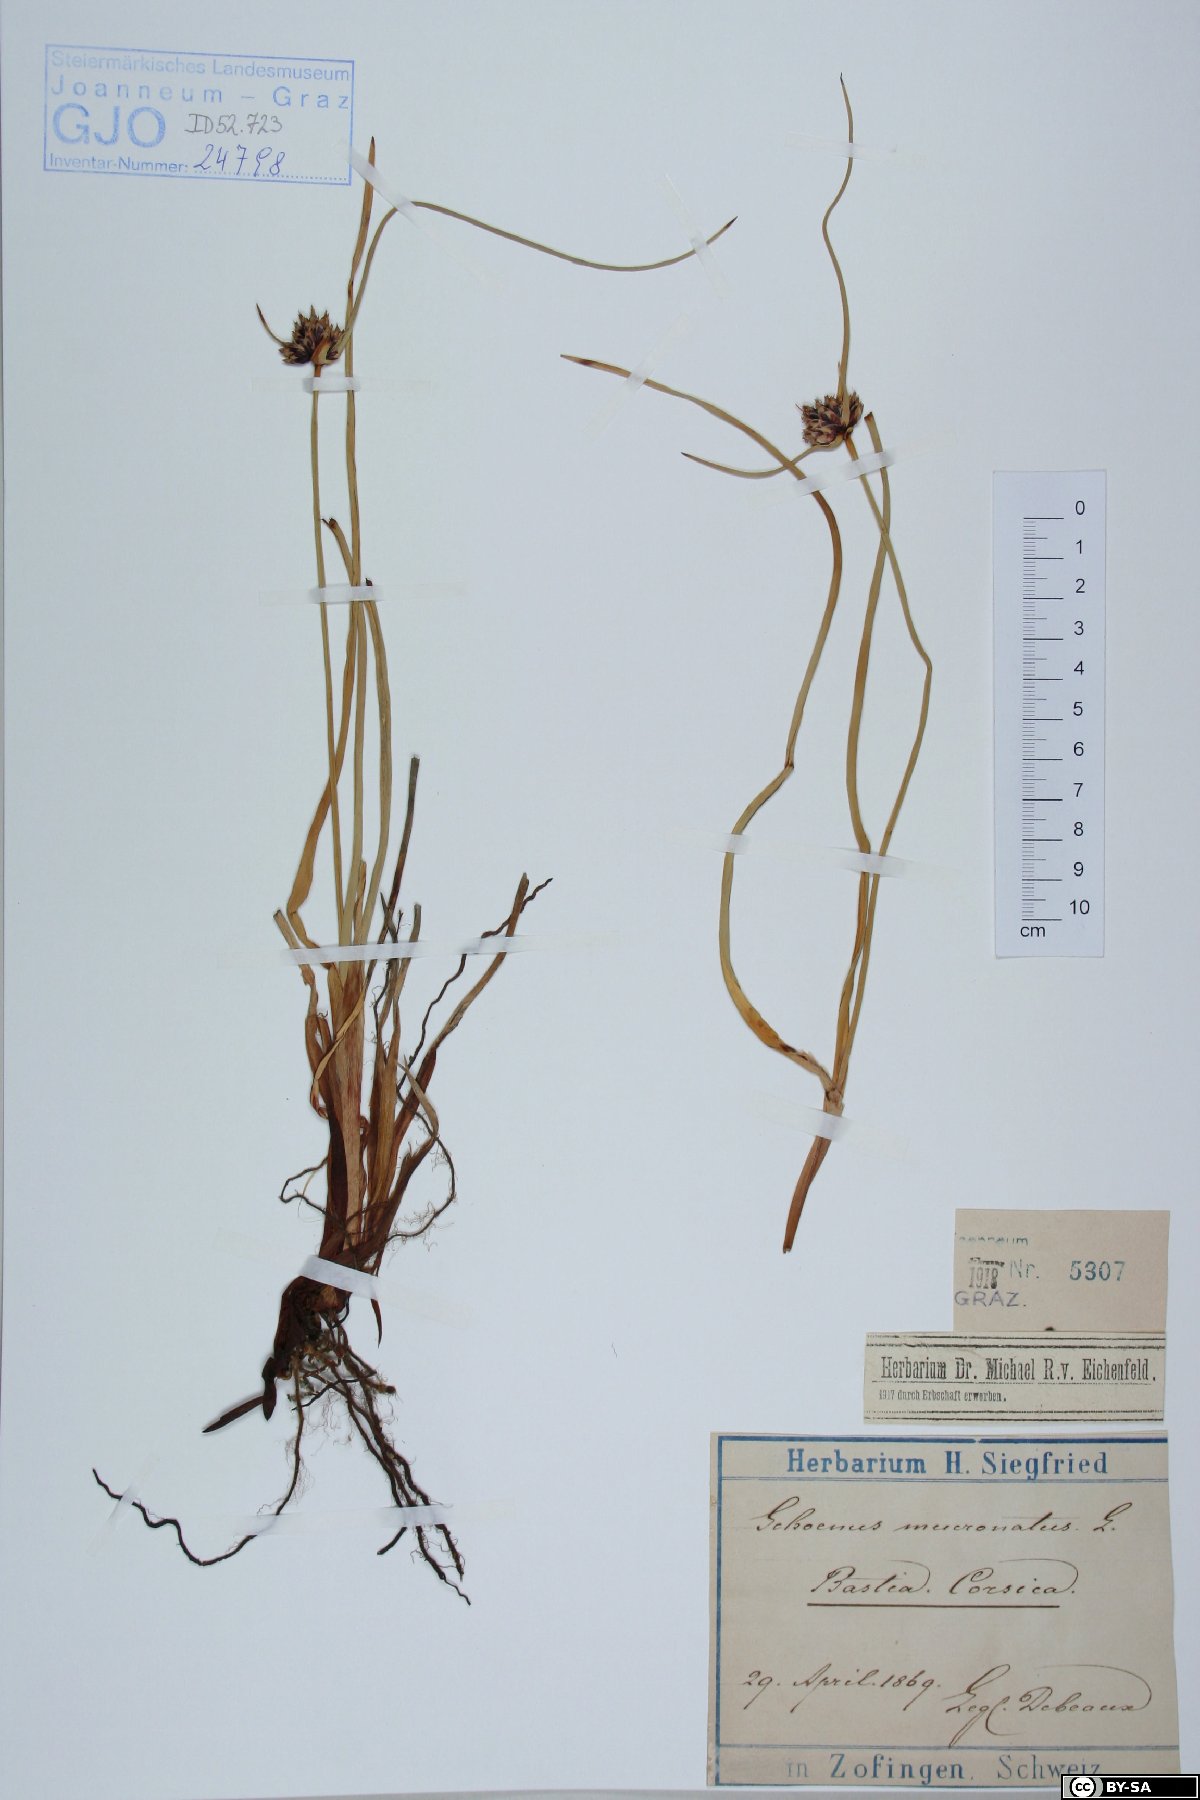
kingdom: Plantae
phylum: Tracheophyta
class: Liliopsida
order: Poales
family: Cyperaceae
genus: Cyperus
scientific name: Cyperus capitatus
